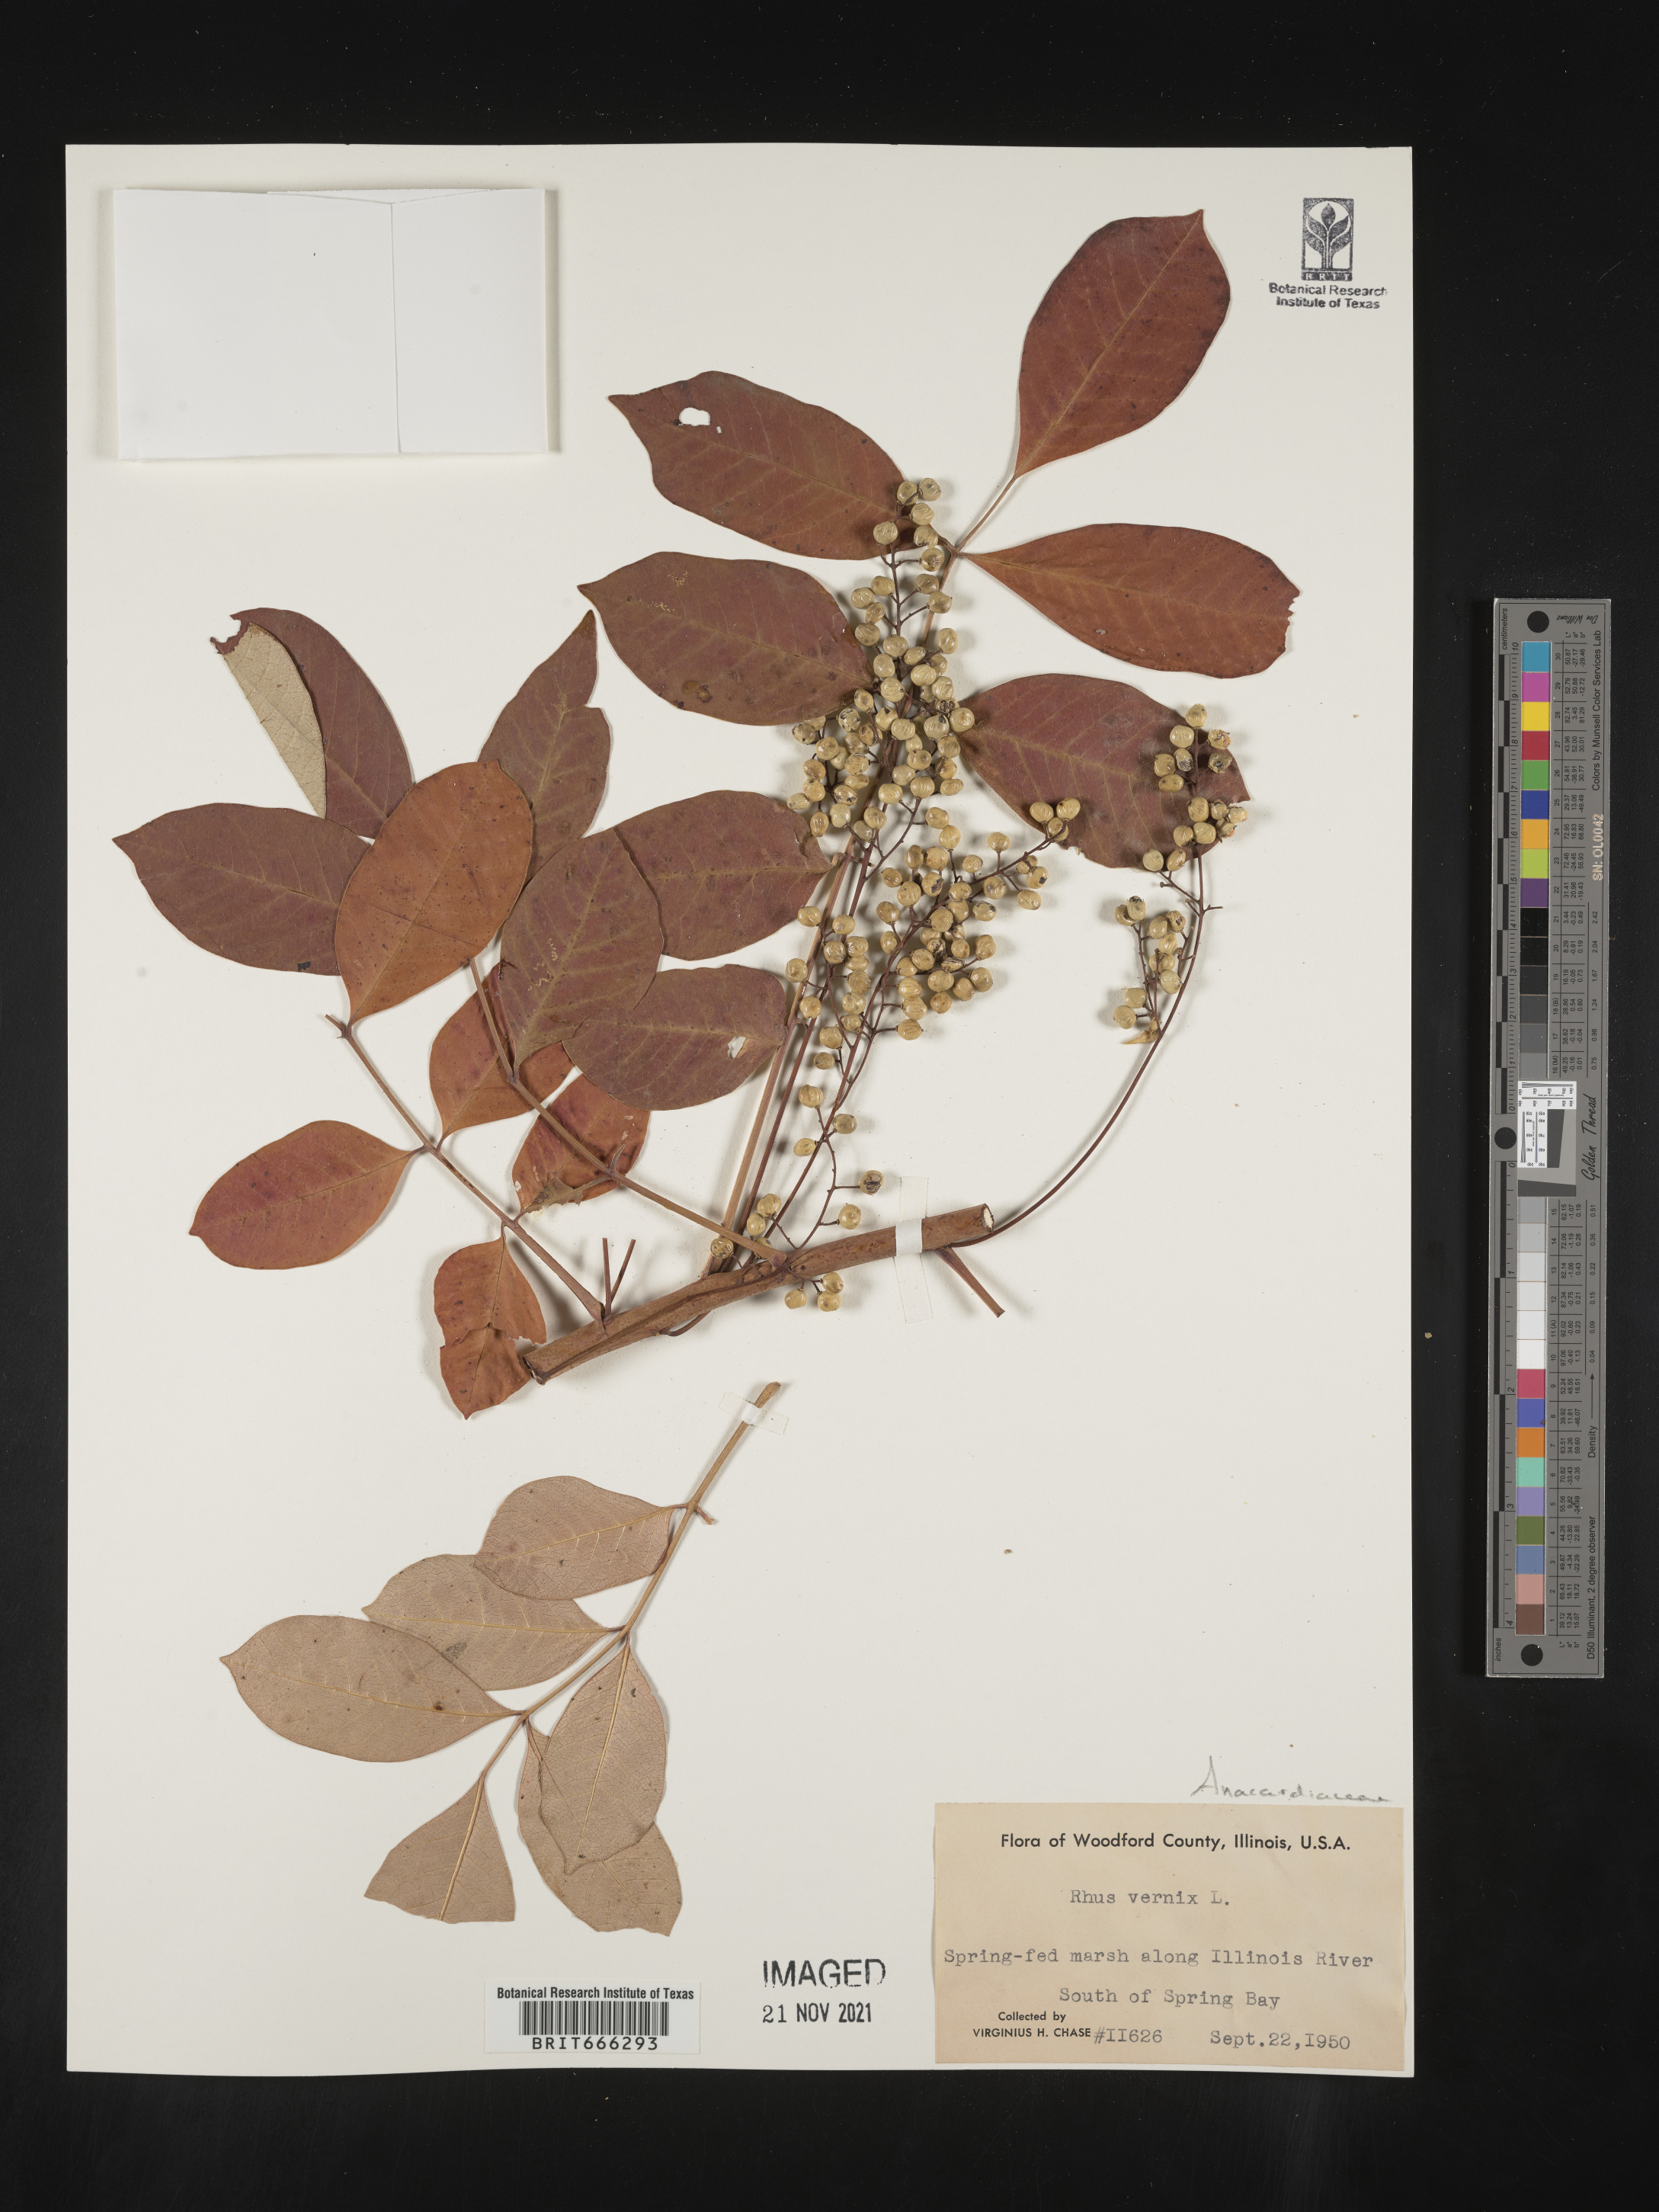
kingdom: Plantae
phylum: Tracheophyta
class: Magnoliopsida
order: Sapindales
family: Anacardiaceae
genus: Toxicodendron
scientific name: Toxicodendron vernix
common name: Poison sumac
